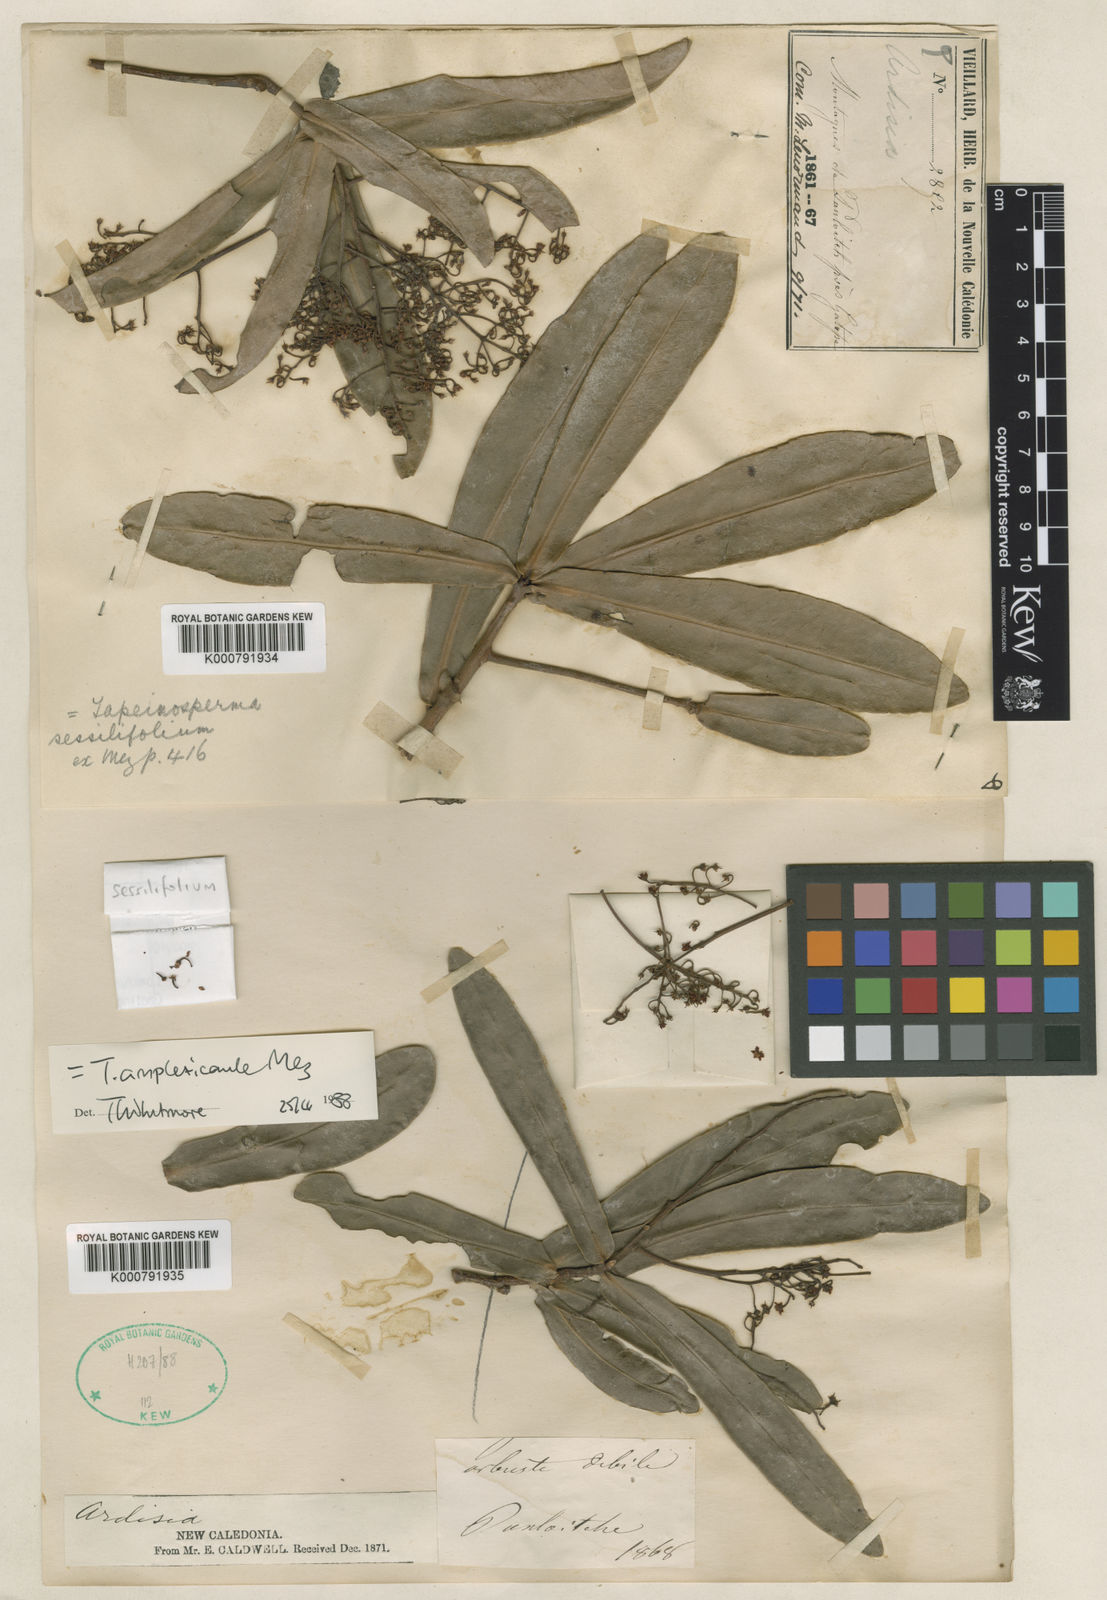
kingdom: Plantae
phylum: Tracheophyta
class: Magnoliopsida
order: Ericales
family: Primulaceae
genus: Tapeinosperma
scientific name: Tapeinosperma amplexicaule
